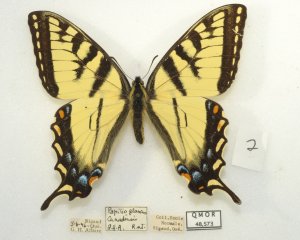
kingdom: Animalia
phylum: Arthropoda
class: Insecta
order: Lepidoptera
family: Papilionidae
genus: Pterourus
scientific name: Pterourus canadensis
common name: Canadian Tiger Swallowtail
